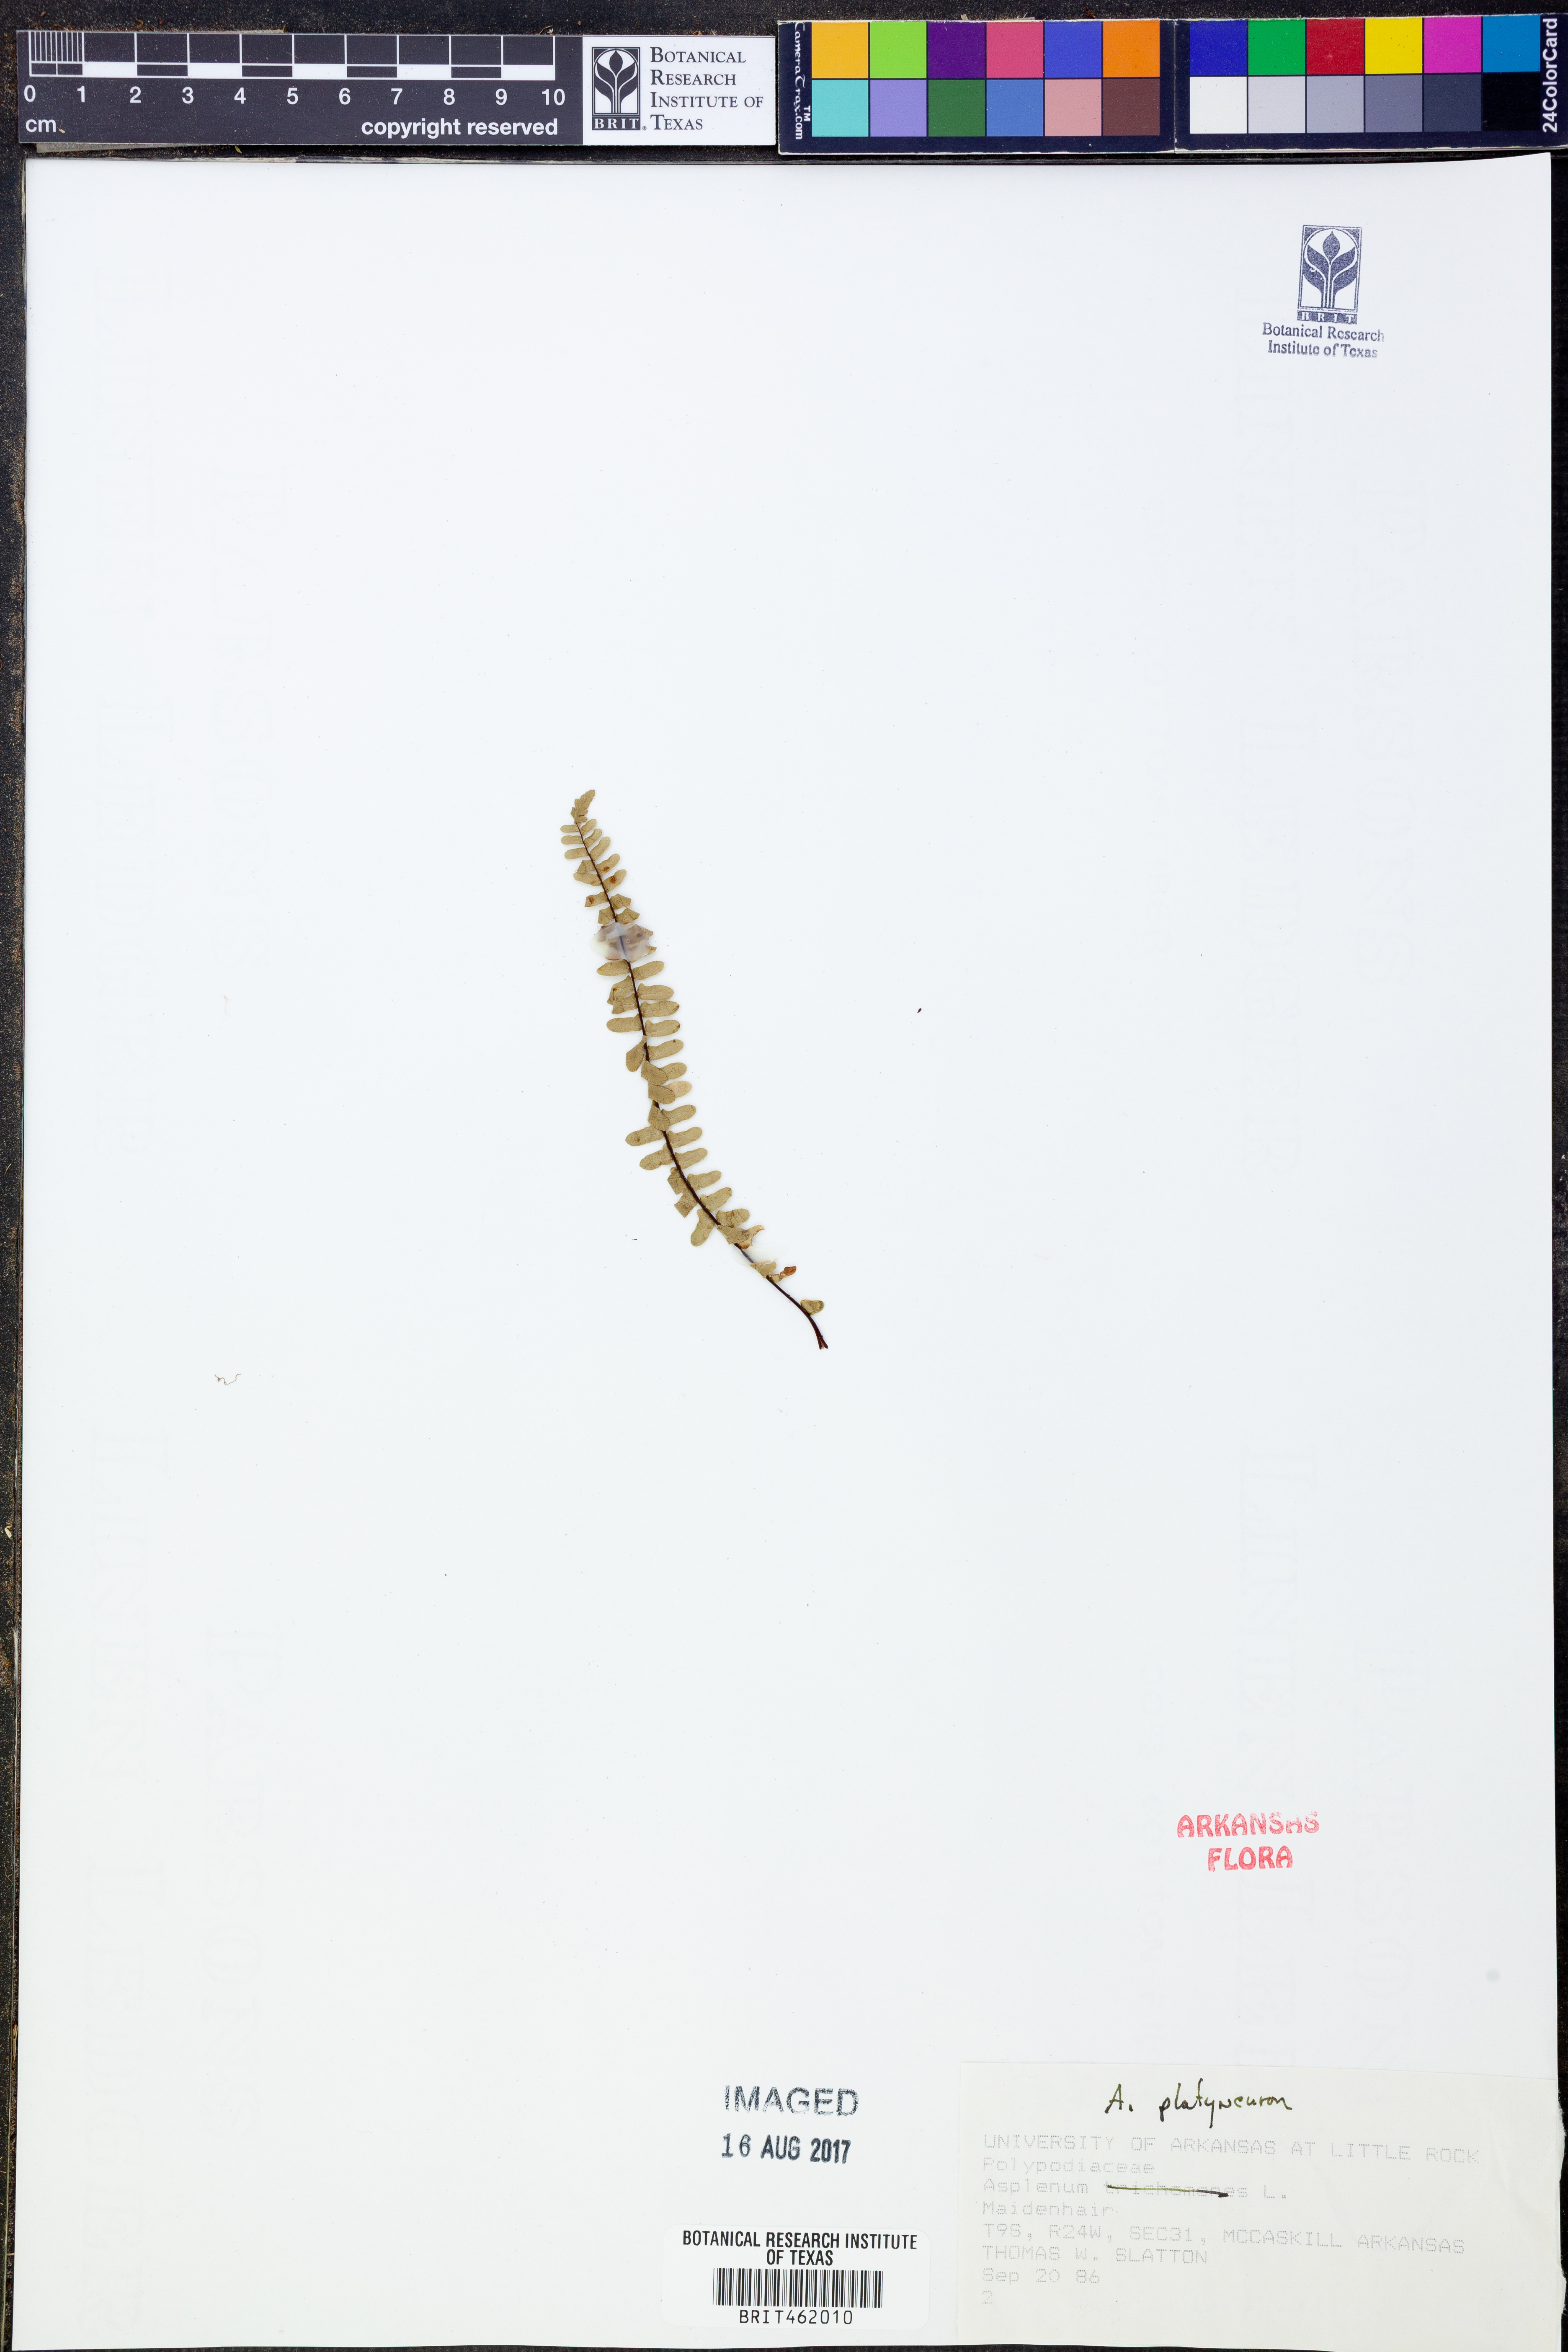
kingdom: Plantae
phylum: Tracheophyta
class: Polypodiopsida
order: Polypodiales
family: Aspleniaceae
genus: Asplenium
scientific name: Asplenium platyneuron
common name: Ebony spleenwort
